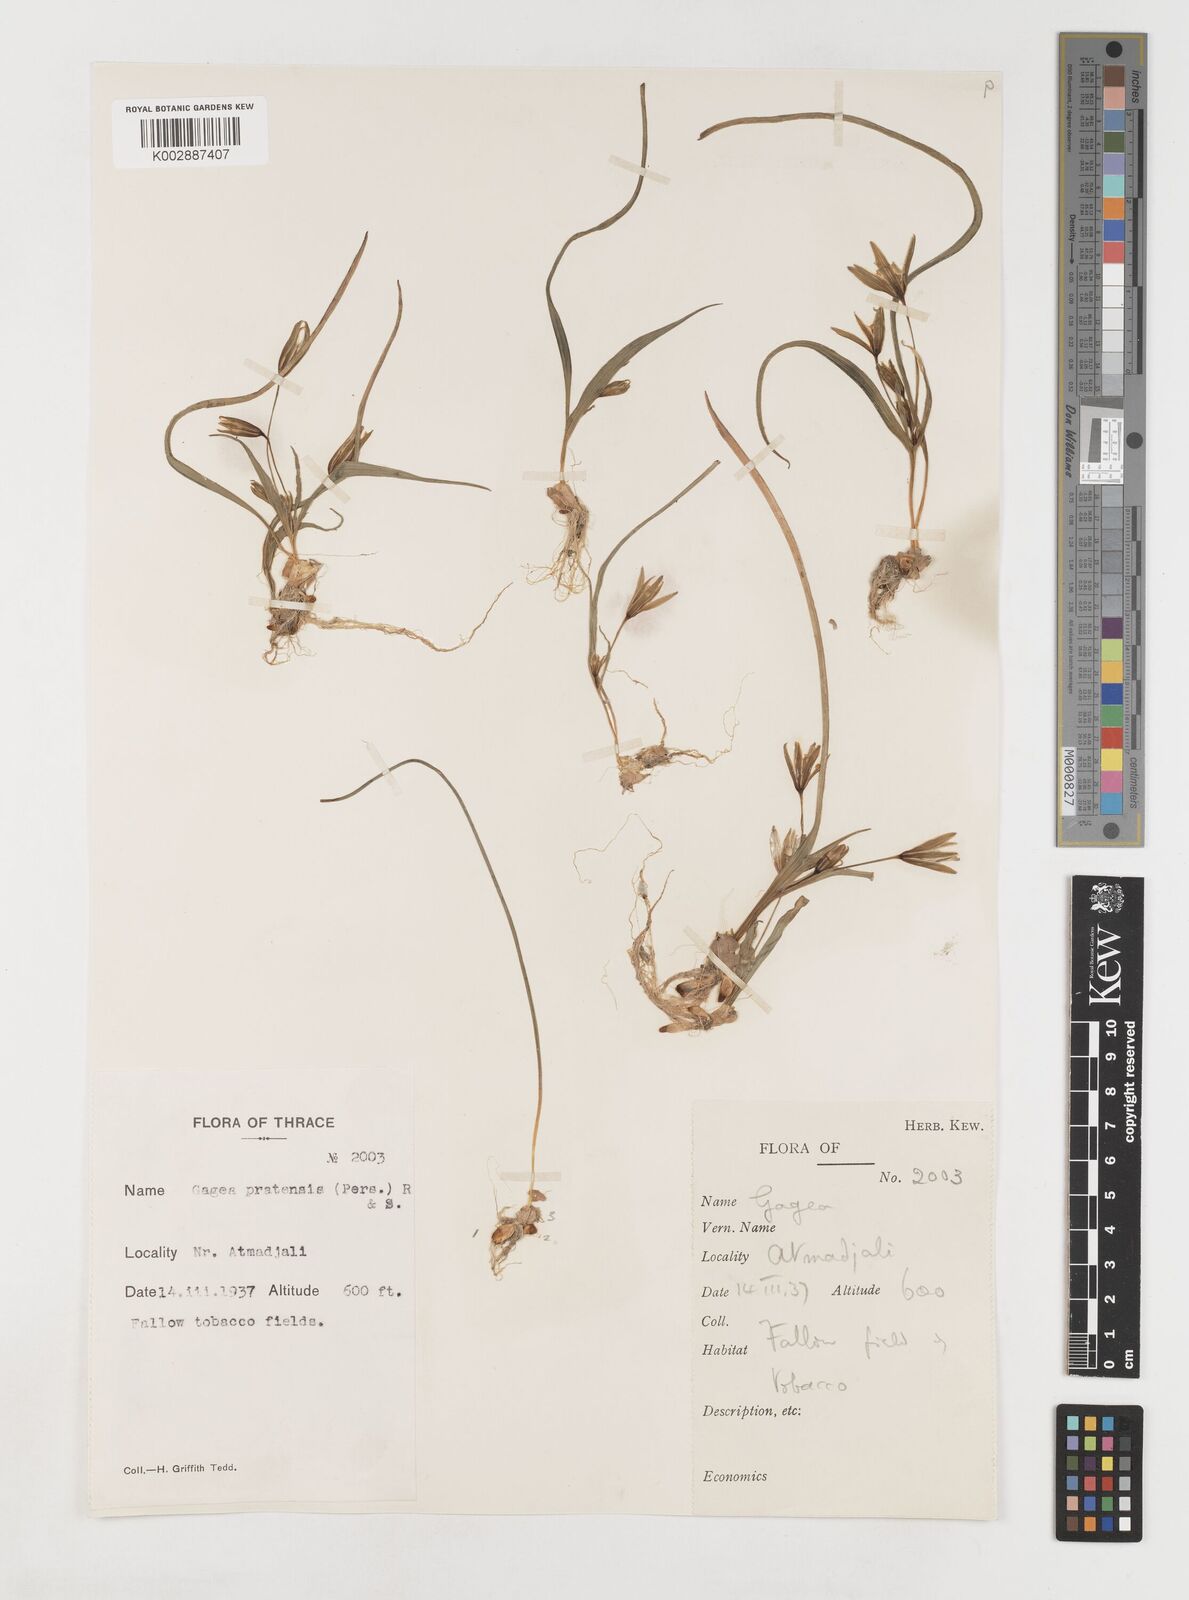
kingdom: Plantae
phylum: Tracheophyta
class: Liliopsida
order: Liliales
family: Liliaceae
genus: Gagea
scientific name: Gagea pratensis
